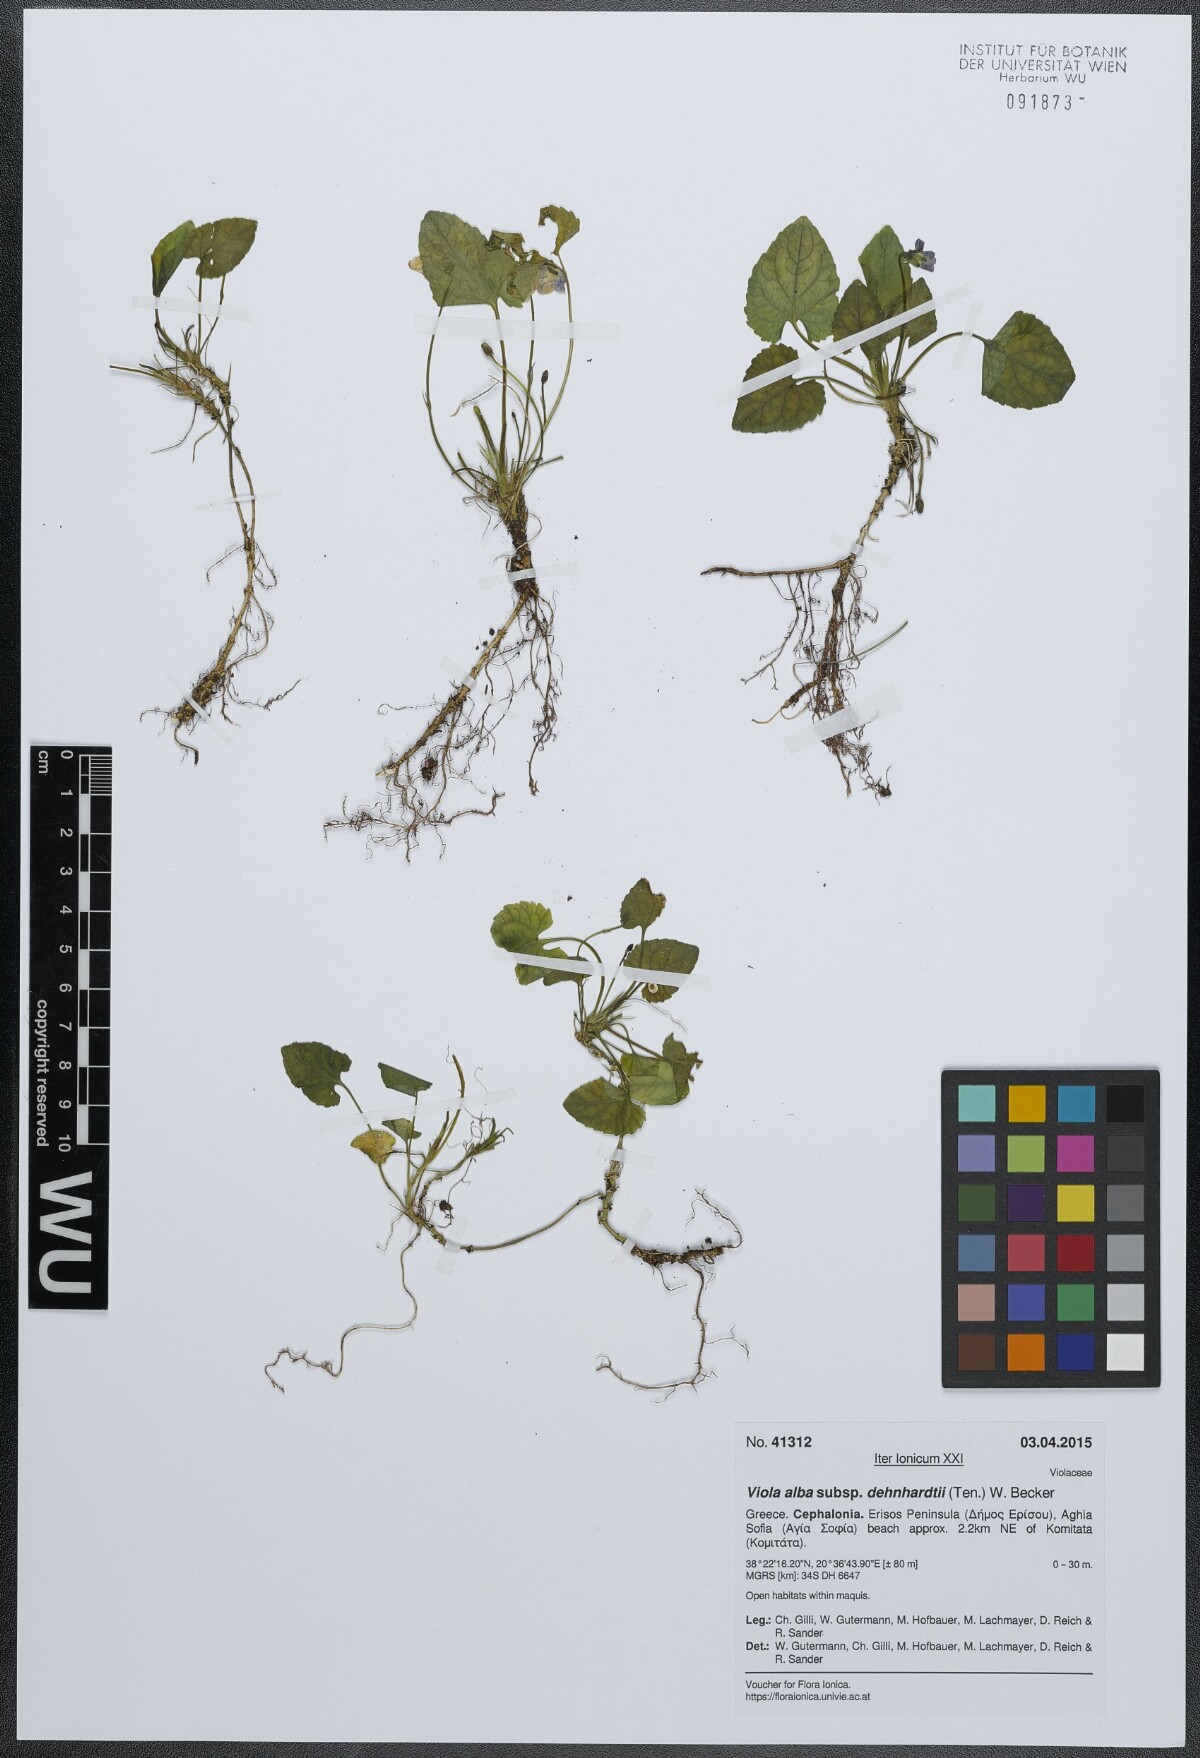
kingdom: Plantae
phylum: Tracheophyta
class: Magnoliopsida
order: Malpighiales
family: Violaceae
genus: Viola
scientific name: Viola alba
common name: White violet
